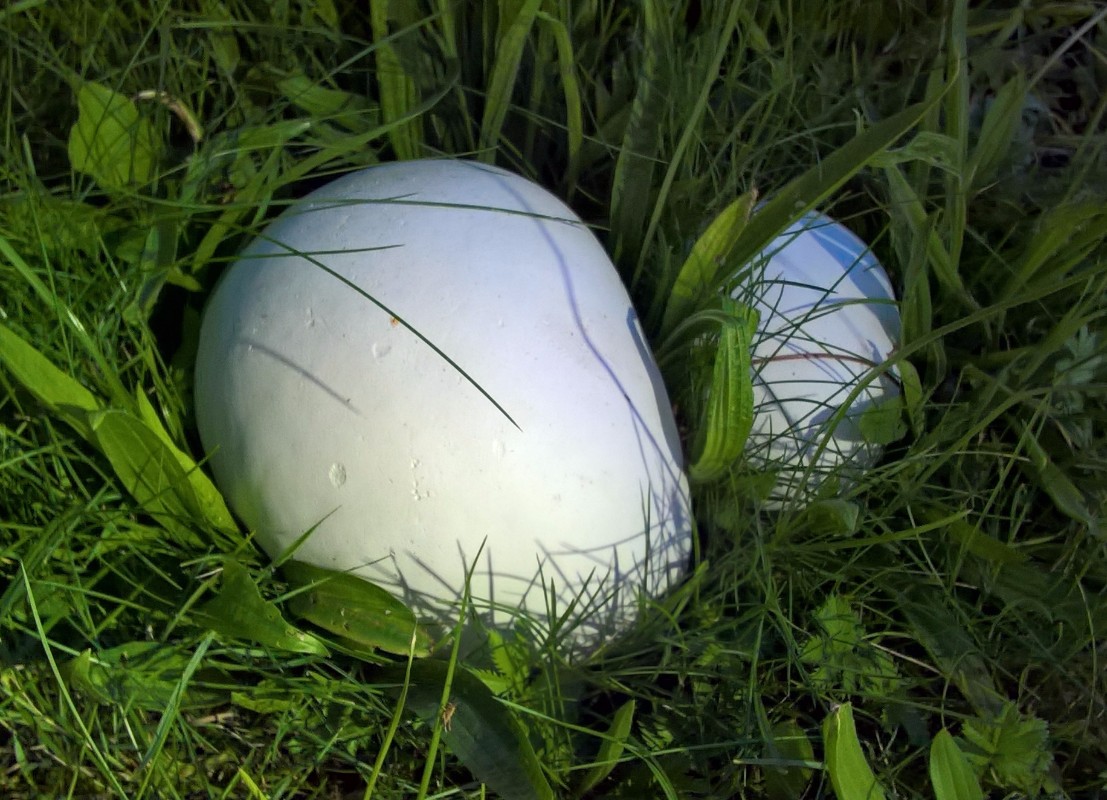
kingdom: Fungi
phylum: Basidiomycota
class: Agaricomycetes
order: Agaricales
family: Lycoperdaceae
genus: Calvatia
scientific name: Calvatia gigantea
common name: kæmpestøvbold
